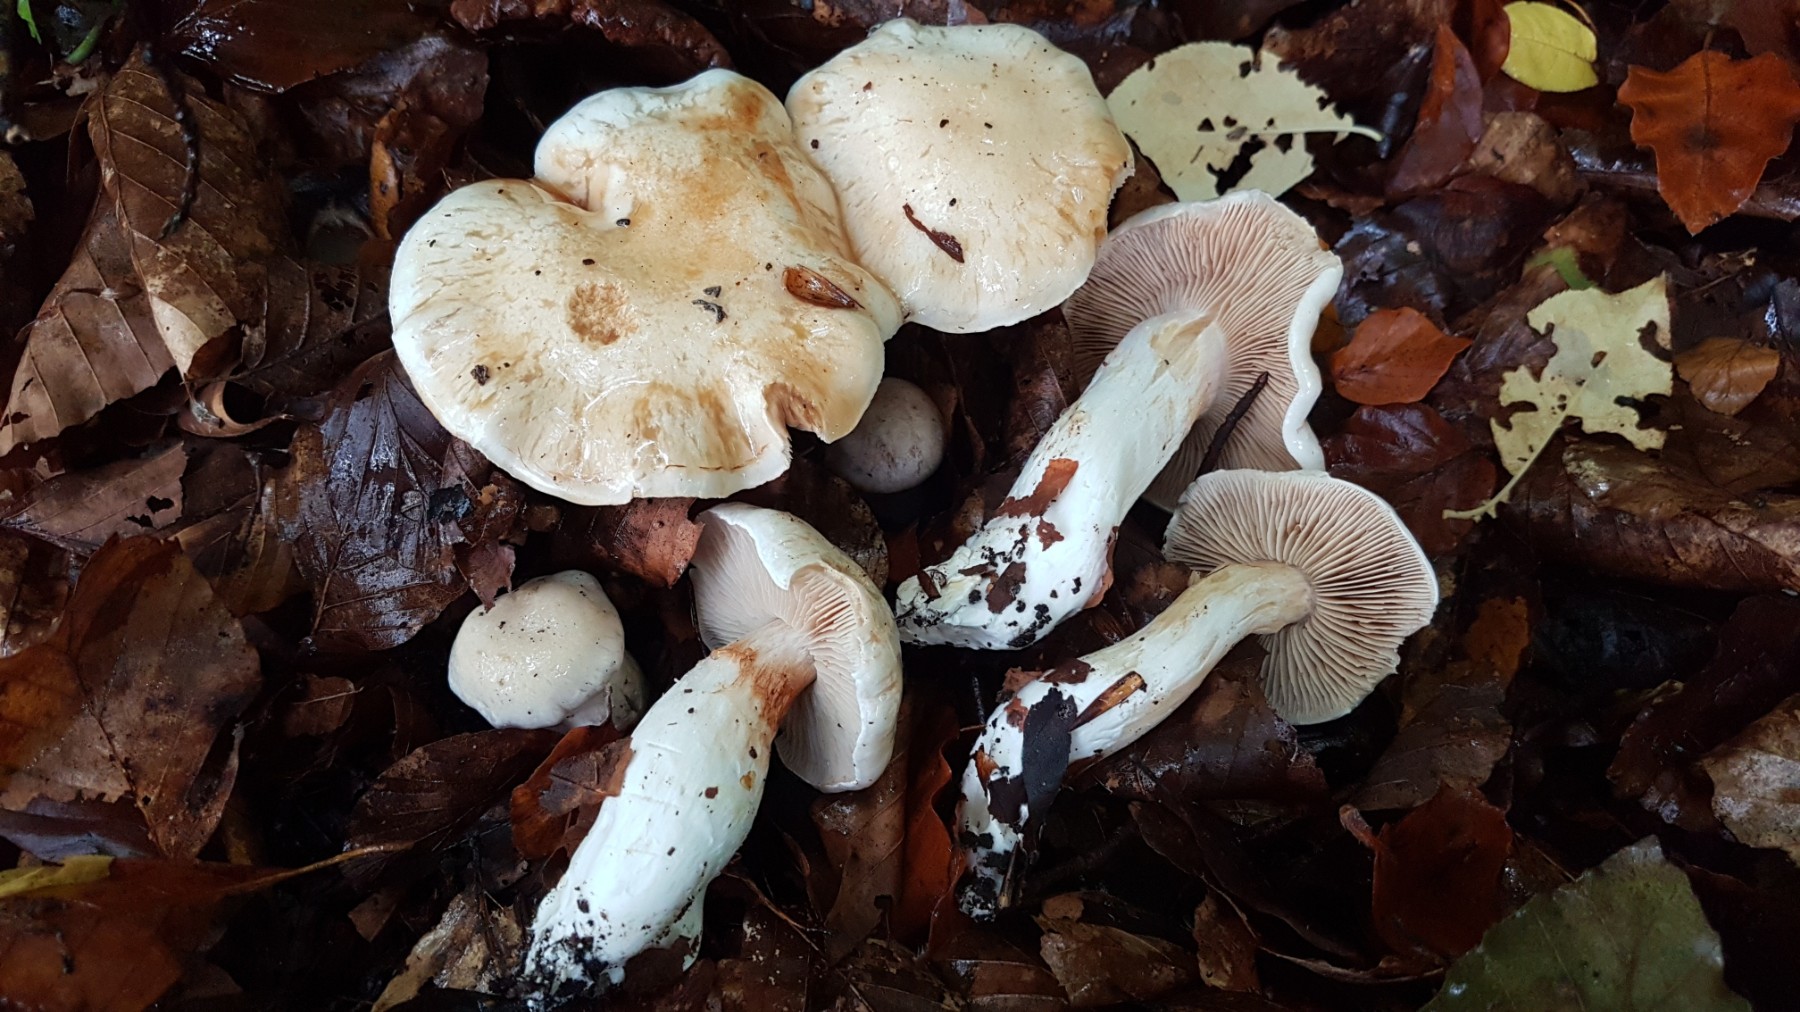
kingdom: Fungi
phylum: Basidiomycota
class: Agaricomycetes
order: Agaricales
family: Cortinariaceae
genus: Thaxterogaster
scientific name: Thaxterogaster barbatus
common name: elfenbens-slørhat
